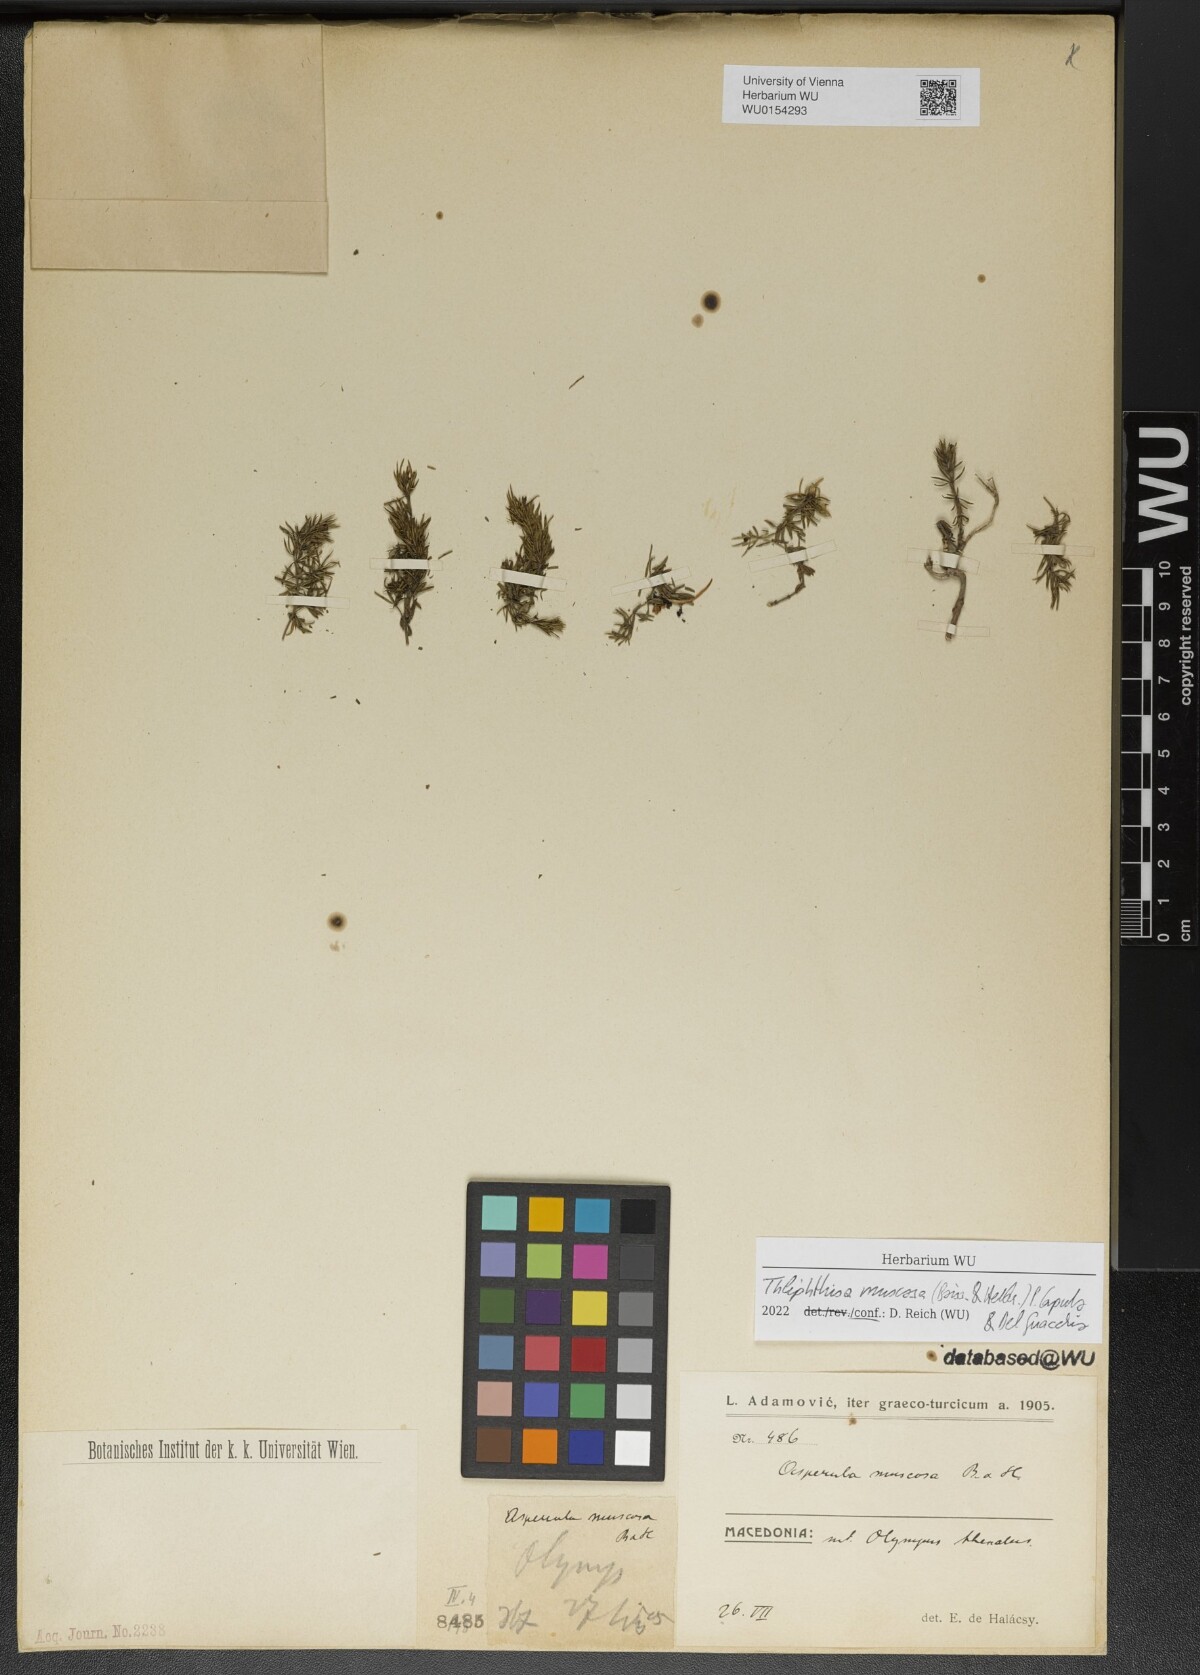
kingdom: Plantae
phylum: Tracheophyta
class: Magnoliopsida
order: Gentianales
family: Rubiaceae
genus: Thliphthisa
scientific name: Thliphthisa muscosa
